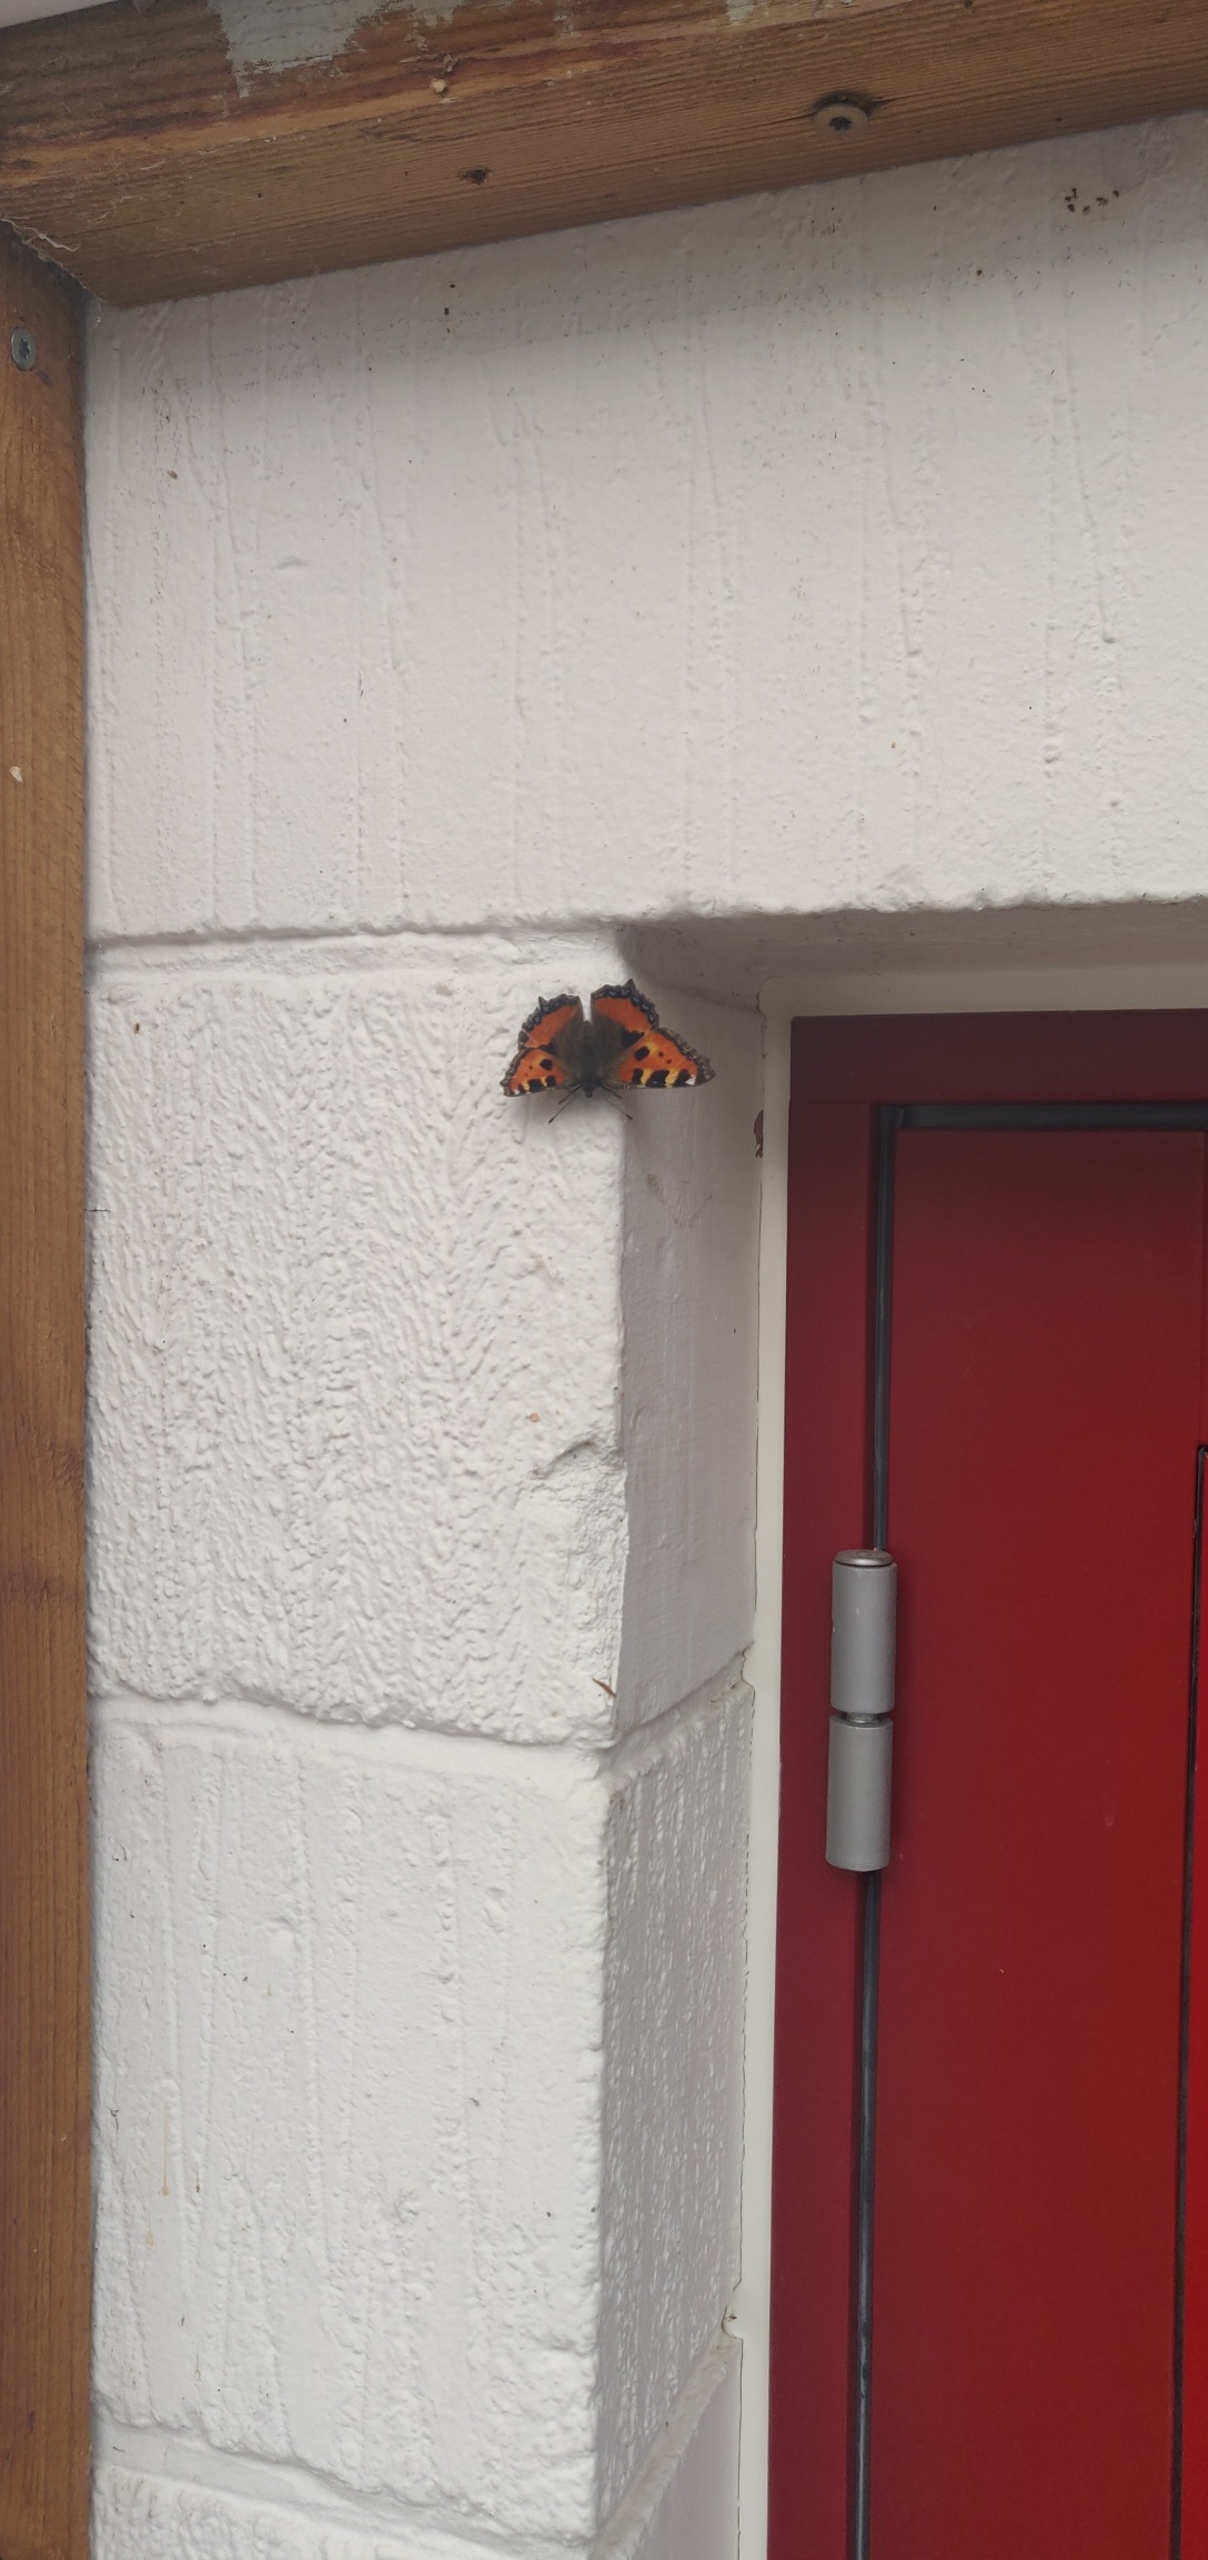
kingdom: Animalia
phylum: Arthropoda
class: Insecta
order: Lepidoptera
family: Nymphalidae
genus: Aglais
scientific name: Aglais urticae
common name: Nældens takvinge
